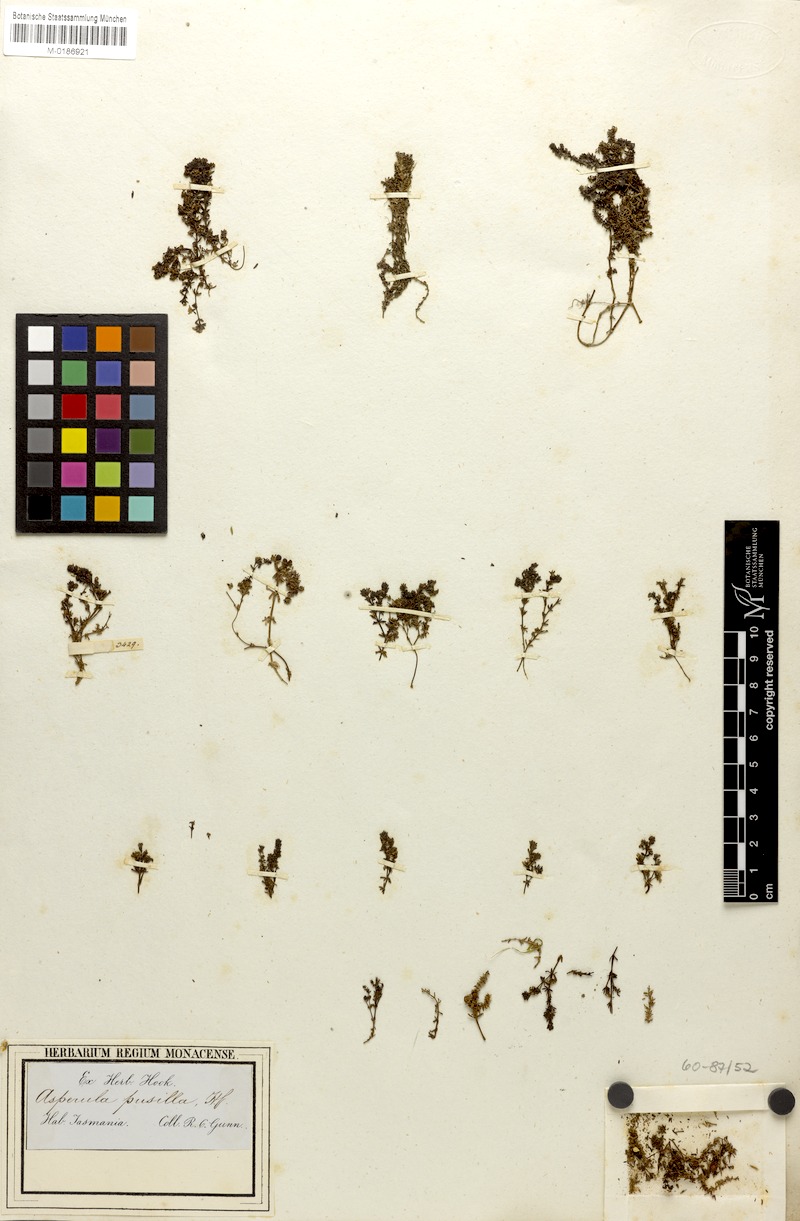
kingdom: Plantae
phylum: Tracheophyta
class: Magnoliopsida
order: Gentianales
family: Rubiaceae
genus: Asperula
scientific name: Asperula gunnii
